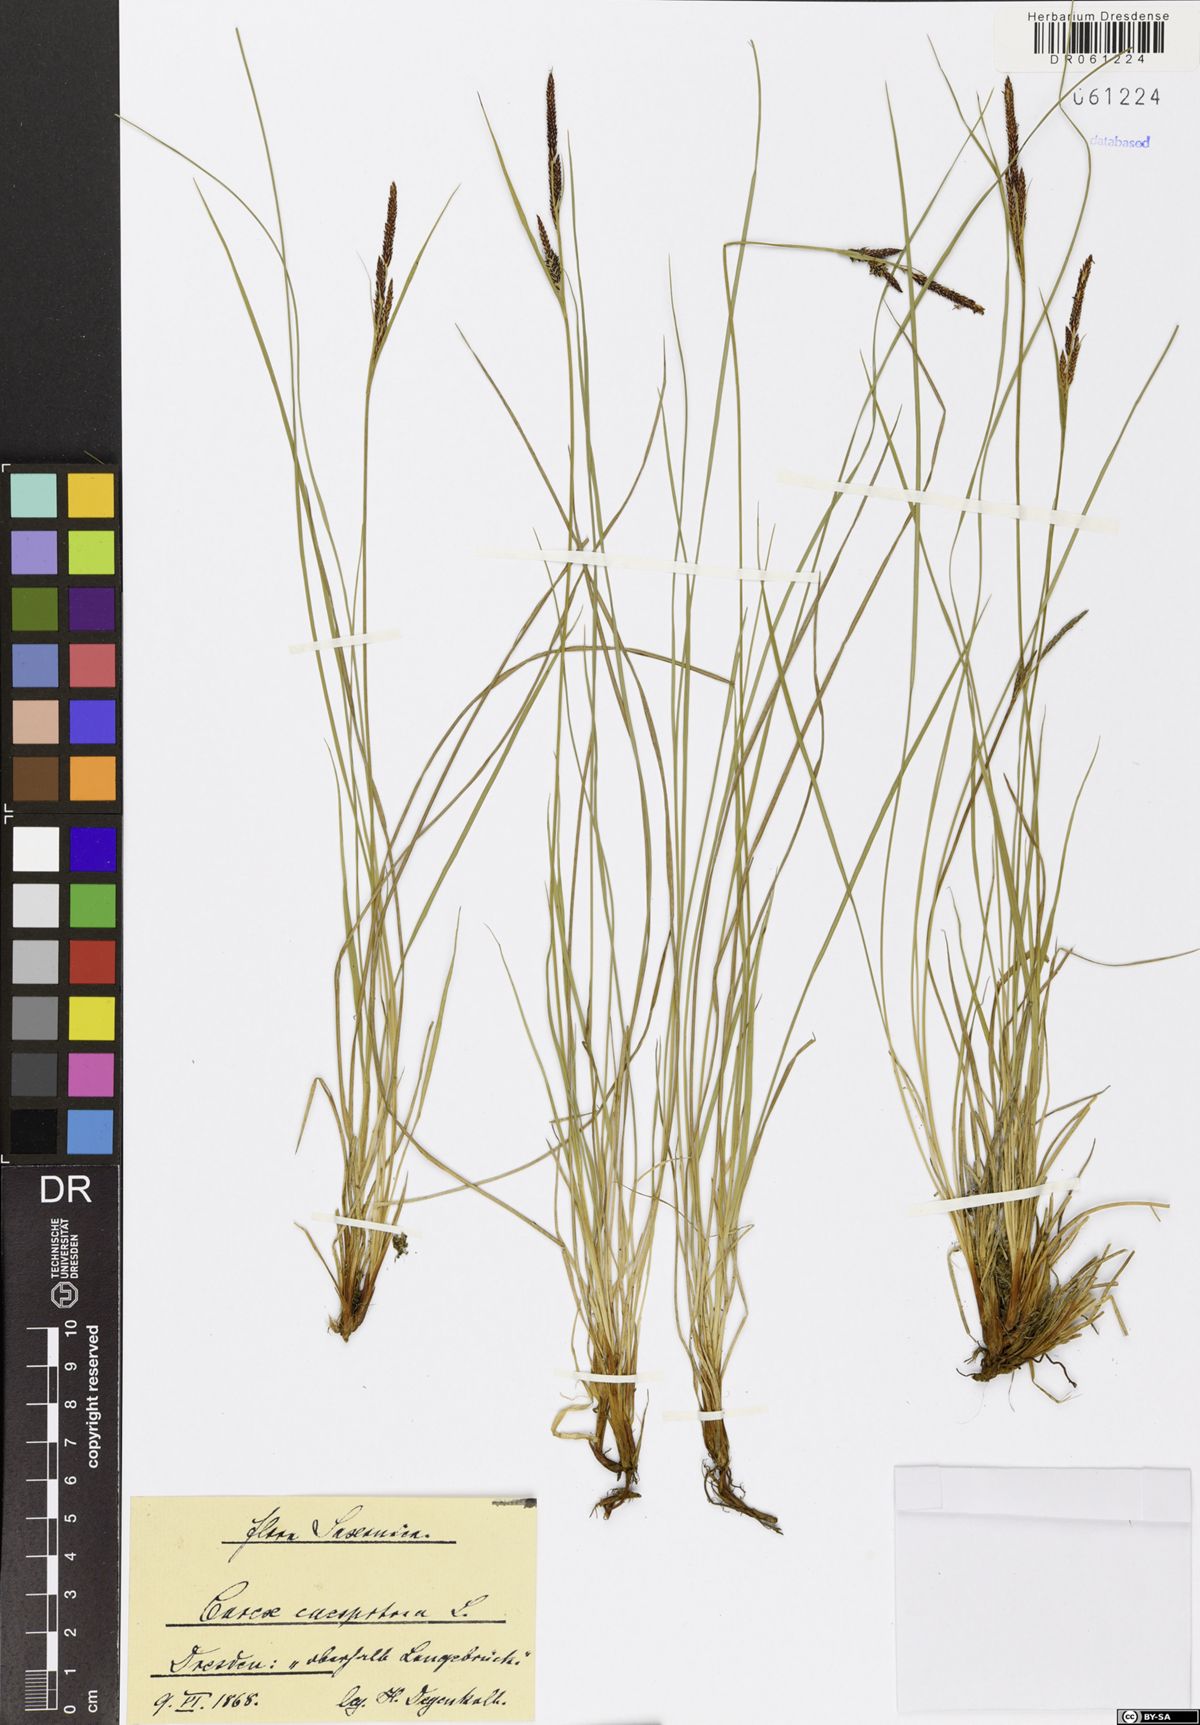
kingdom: Plantae
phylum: Tracheophyta
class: Liliopsida
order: Poales
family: Cyperaceae
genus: Carex
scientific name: Carex cespitosa
